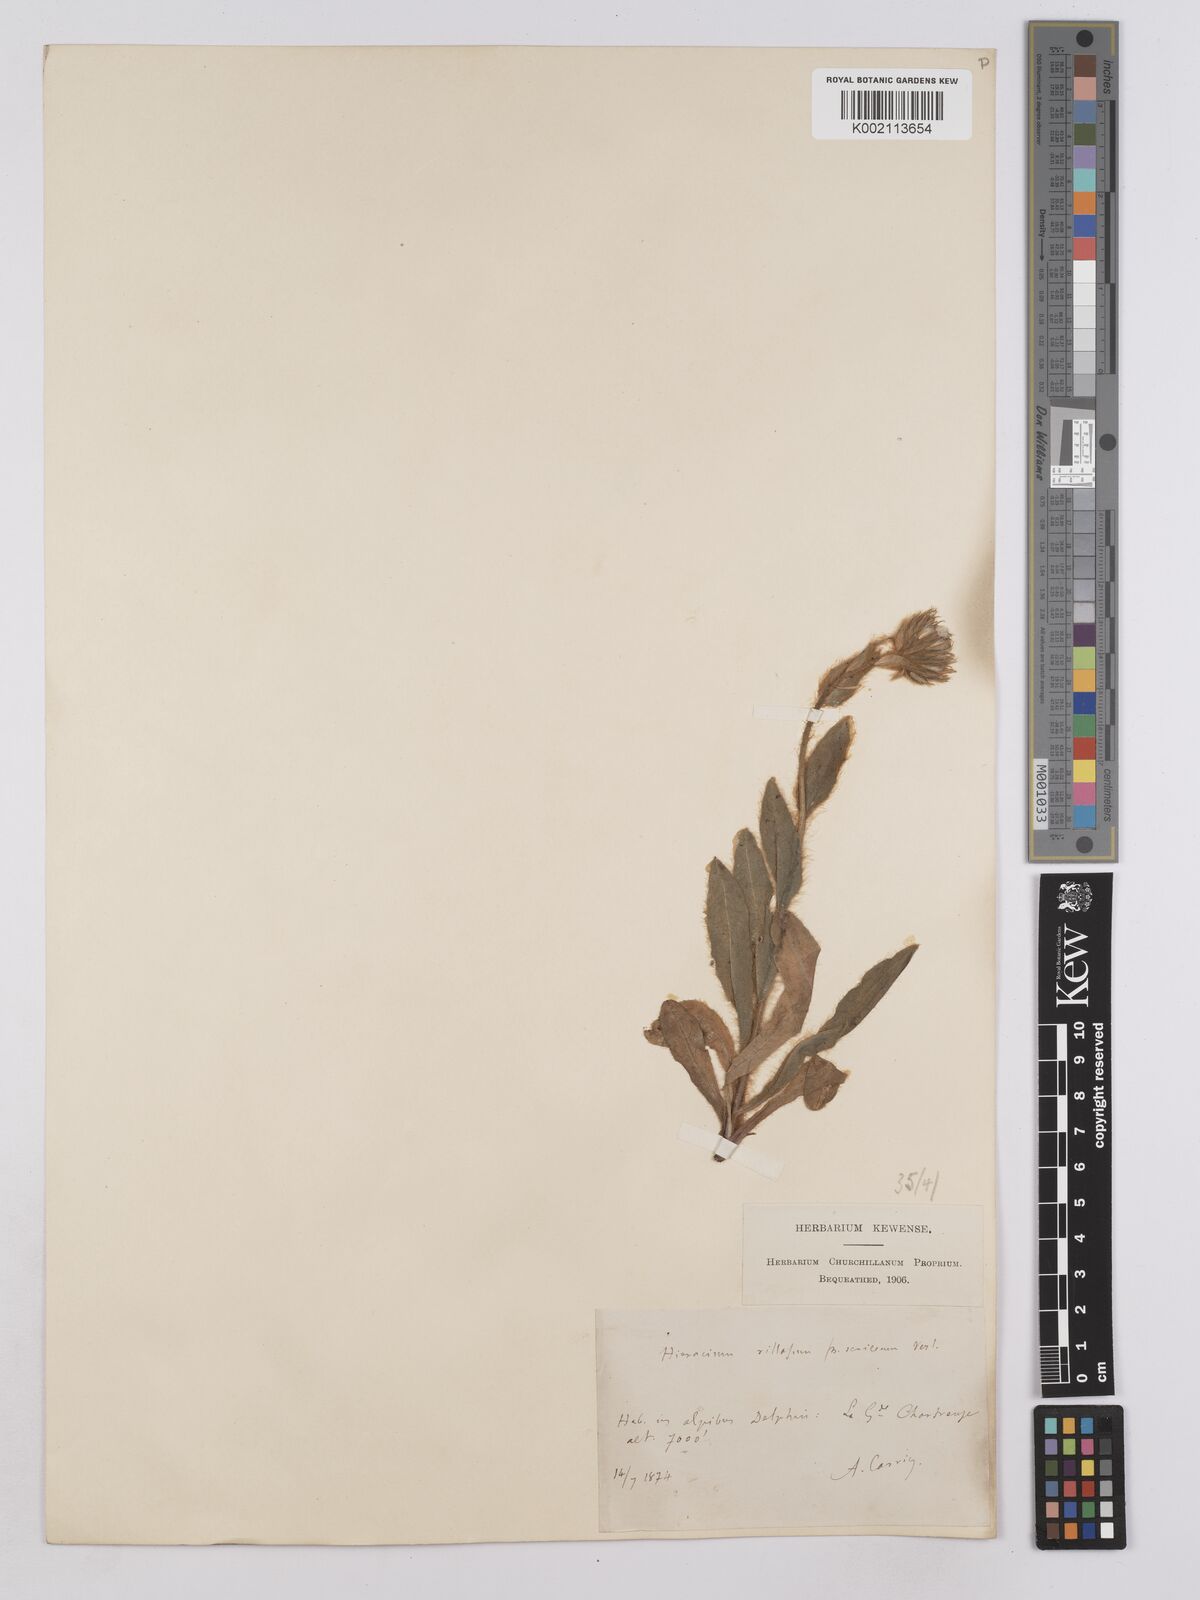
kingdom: Plantae
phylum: Tracheophyta
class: Magnoliopsida
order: Asterales
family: Asteraceae
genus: Hieracium
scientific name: Hieracium villosum
